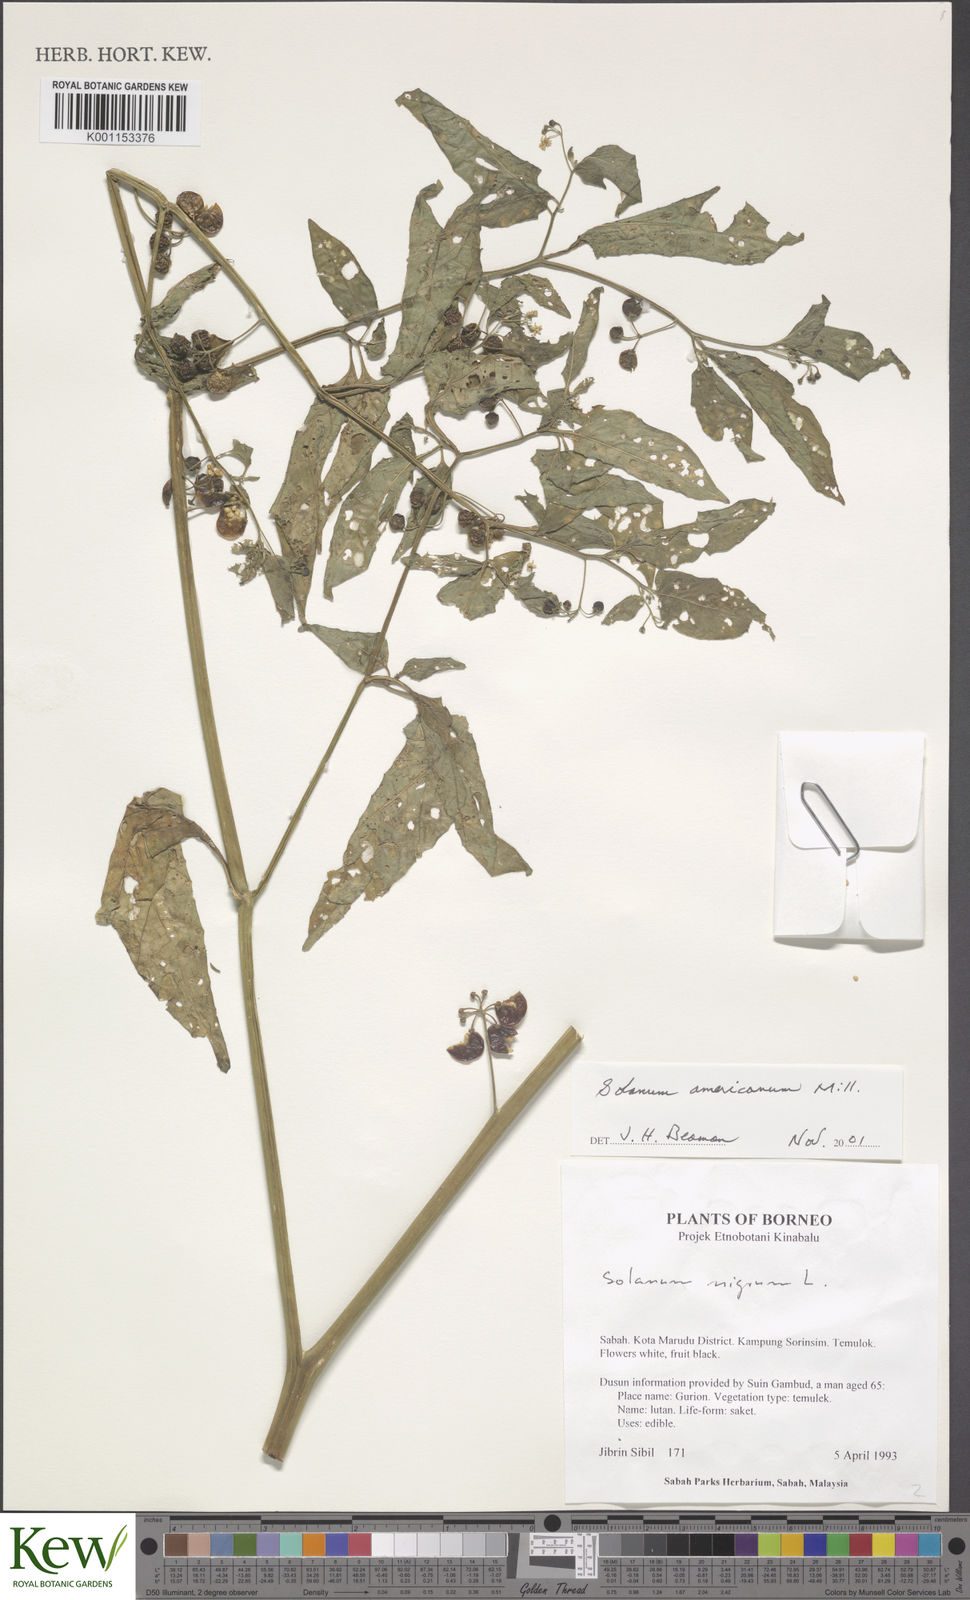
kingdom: Plantae
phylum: Tracheophyta
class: Magnoliopsida
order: Solanales
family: Solanaceae
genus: Solanum
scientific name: Solanum
